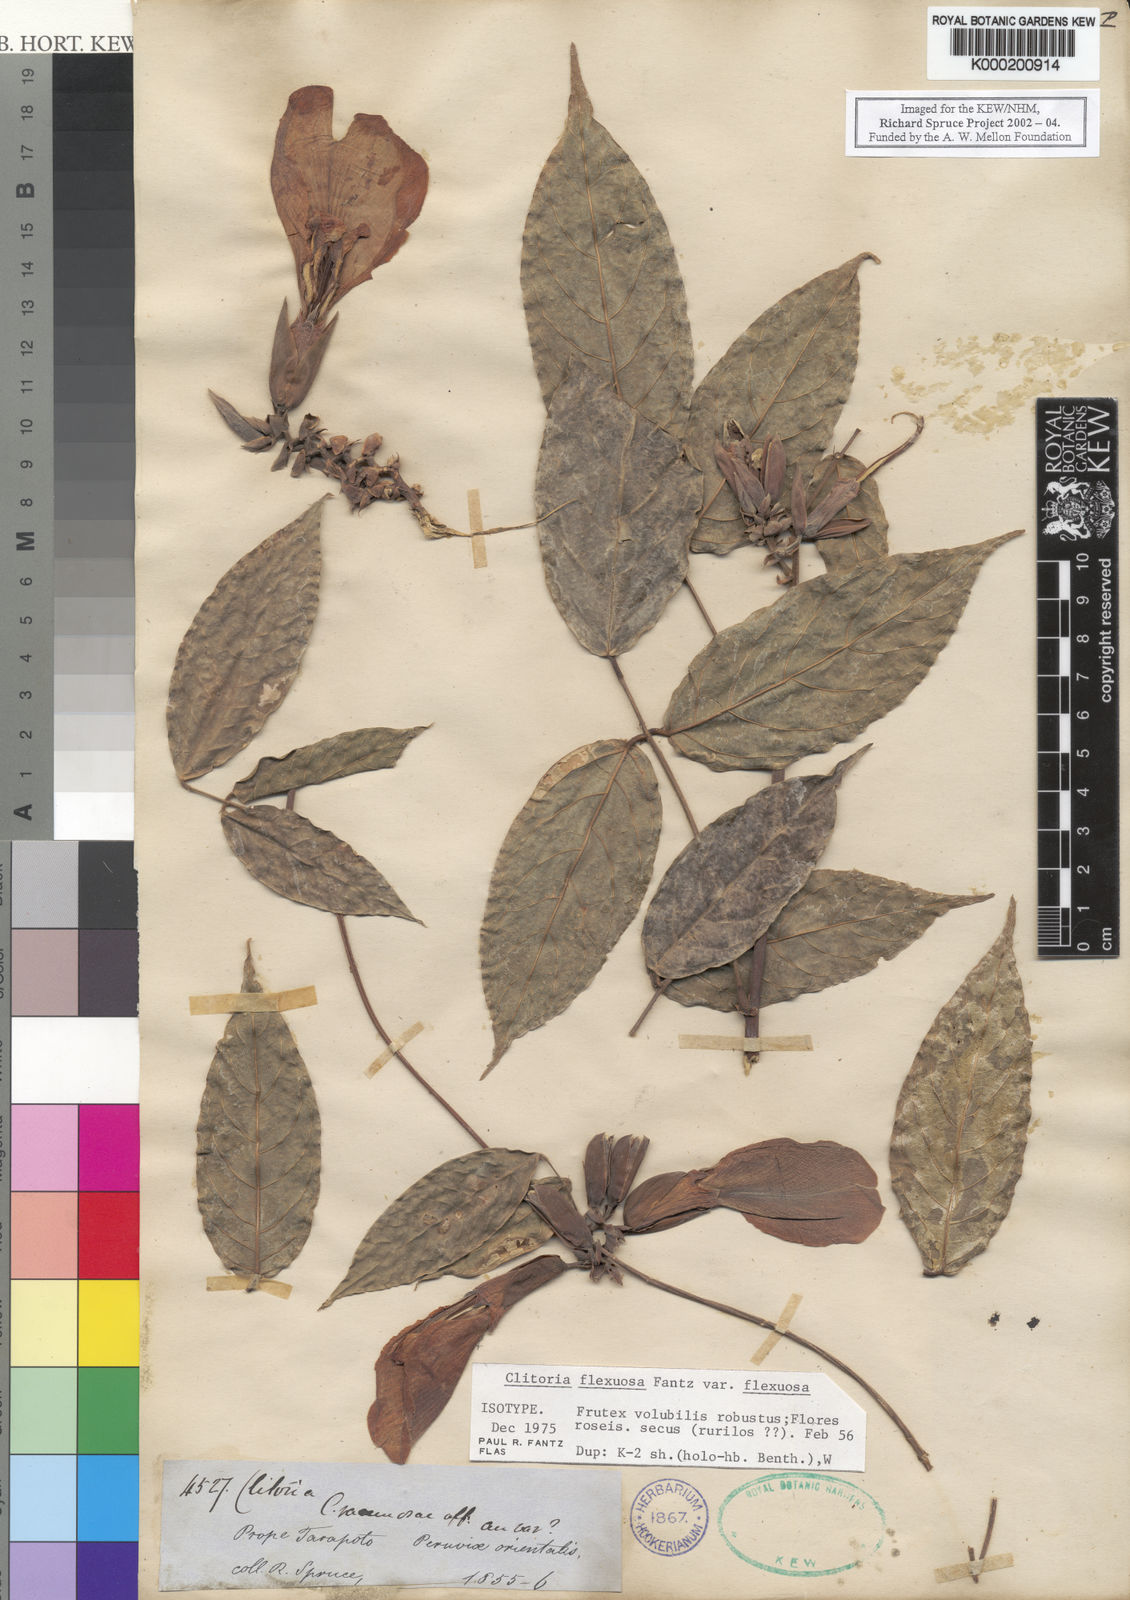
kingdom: Plantae
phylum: Tracheophyta
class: Magnoliopsida
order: Fabales
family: Fabaceae
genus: Clitoria
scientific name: Clitoria flexuosa
